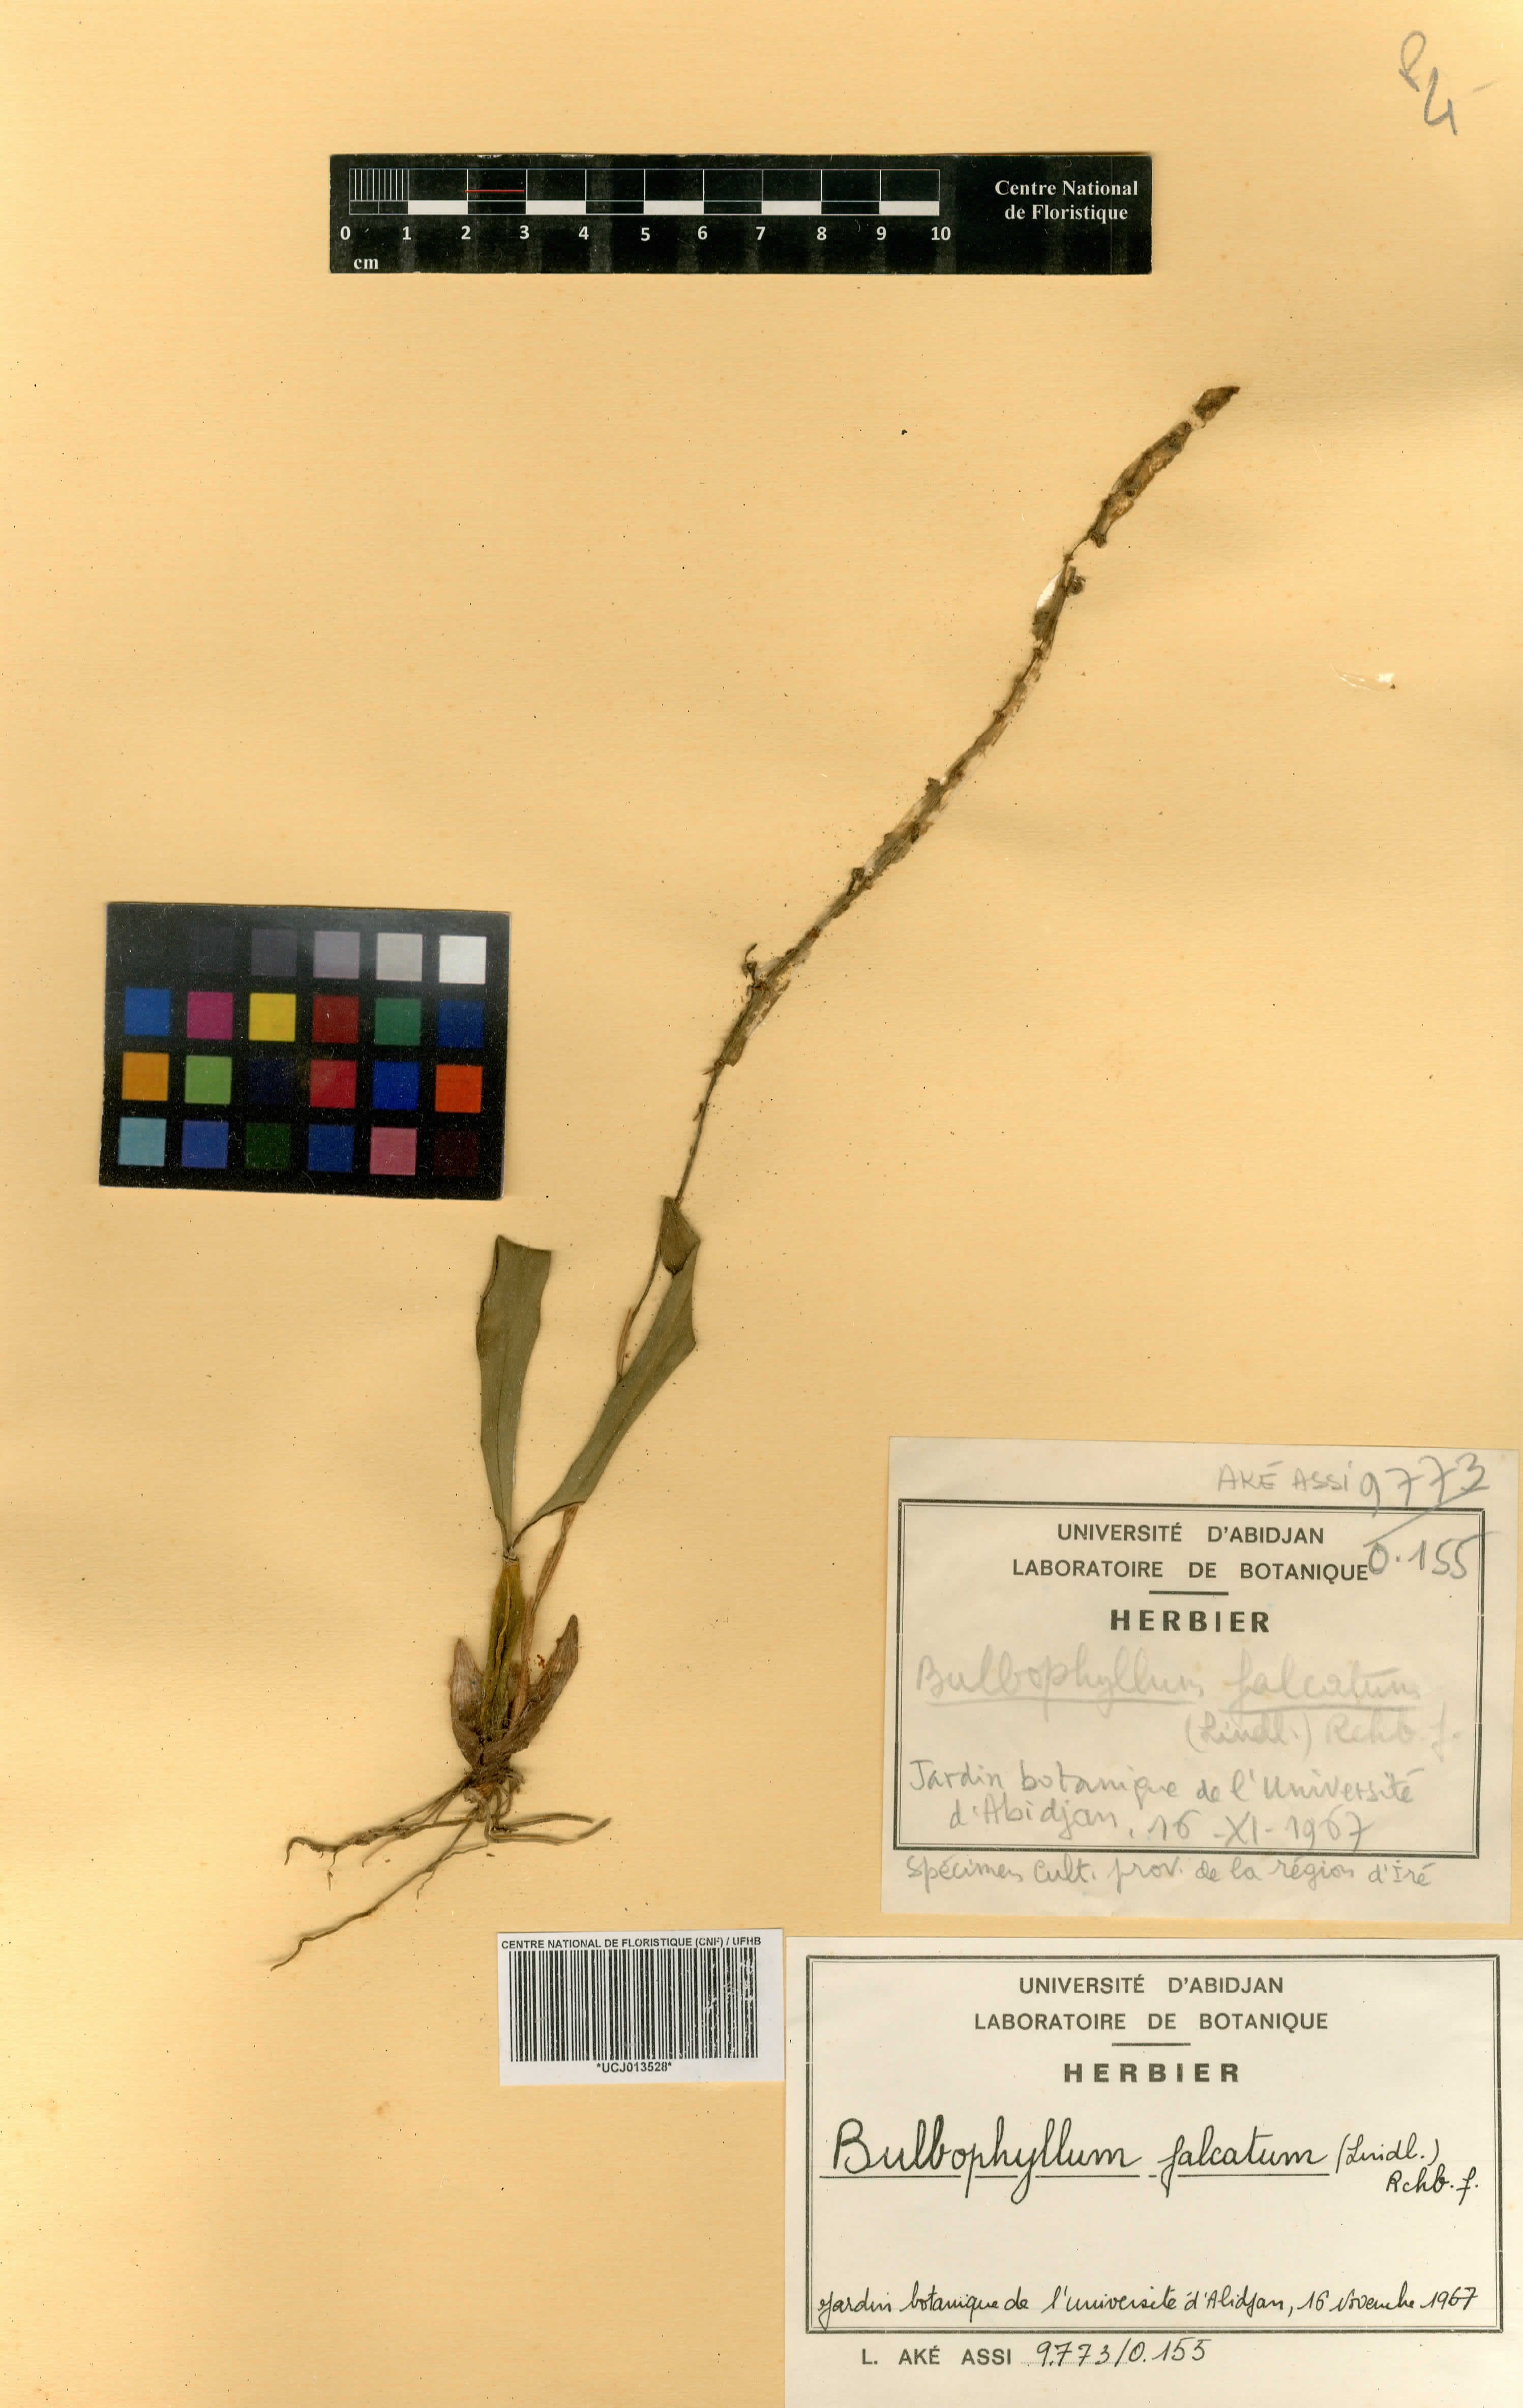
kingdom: Plantae
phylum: Tracheophyta
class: Liliopsida
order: Asparagales
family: Orchidaceae
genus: Bulbophyllum
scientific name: Bulbophyllum falcatum
